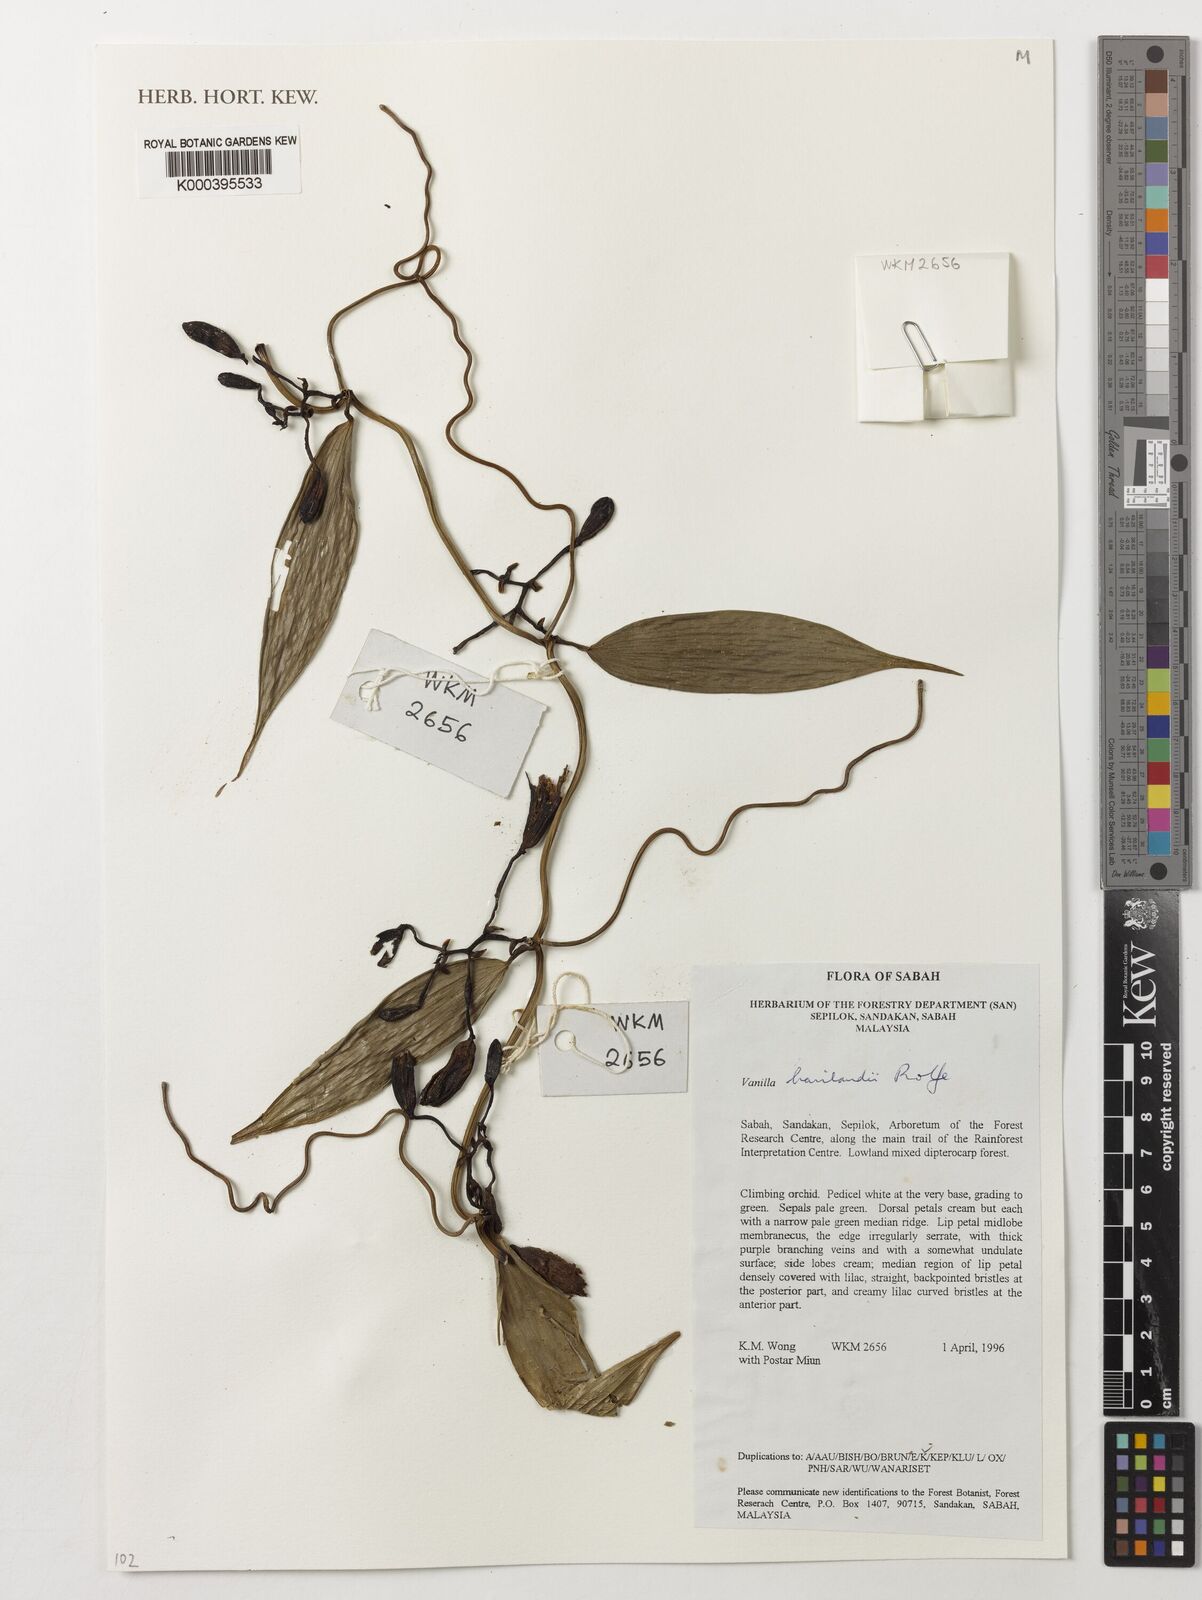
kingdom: Plantae
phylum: Tracheophyta
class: Liliopsida
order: Asparagales
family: Orchidaceae
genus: Vanilla
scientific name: Vanilla
